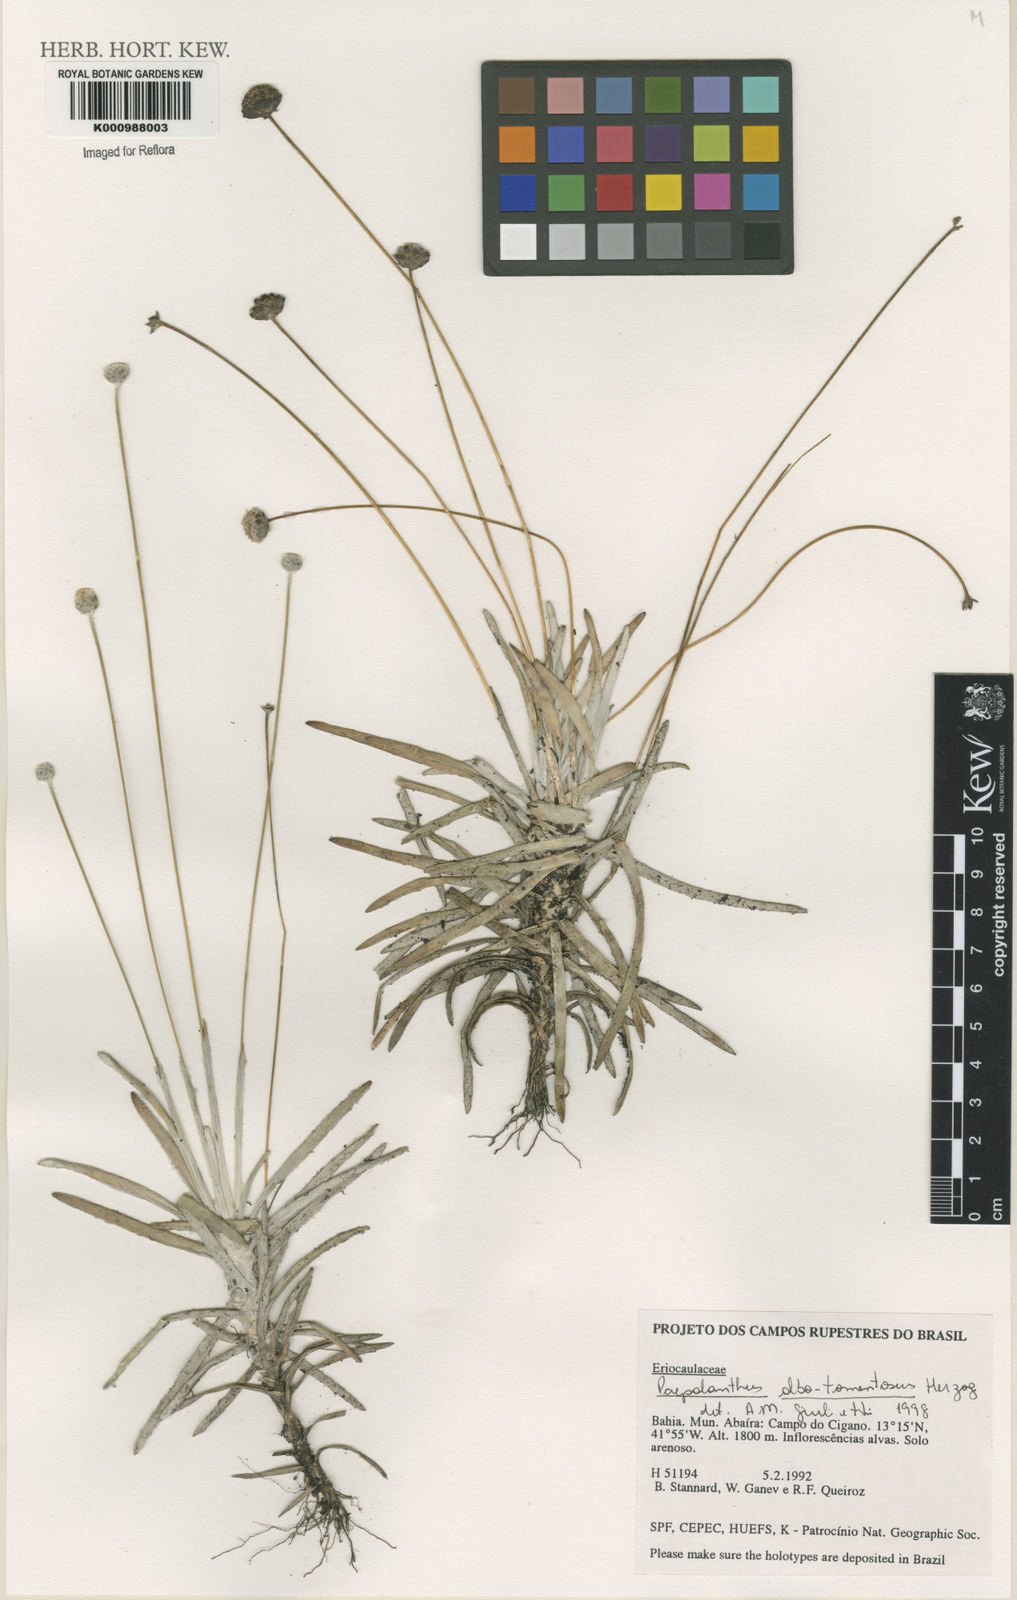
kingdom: Plantae
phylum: Tracheophyta
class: Liliopsida
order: Poales
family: Eriocaulaceae
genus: Paepalanthus
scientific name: Paepalanthus albotomentosus
